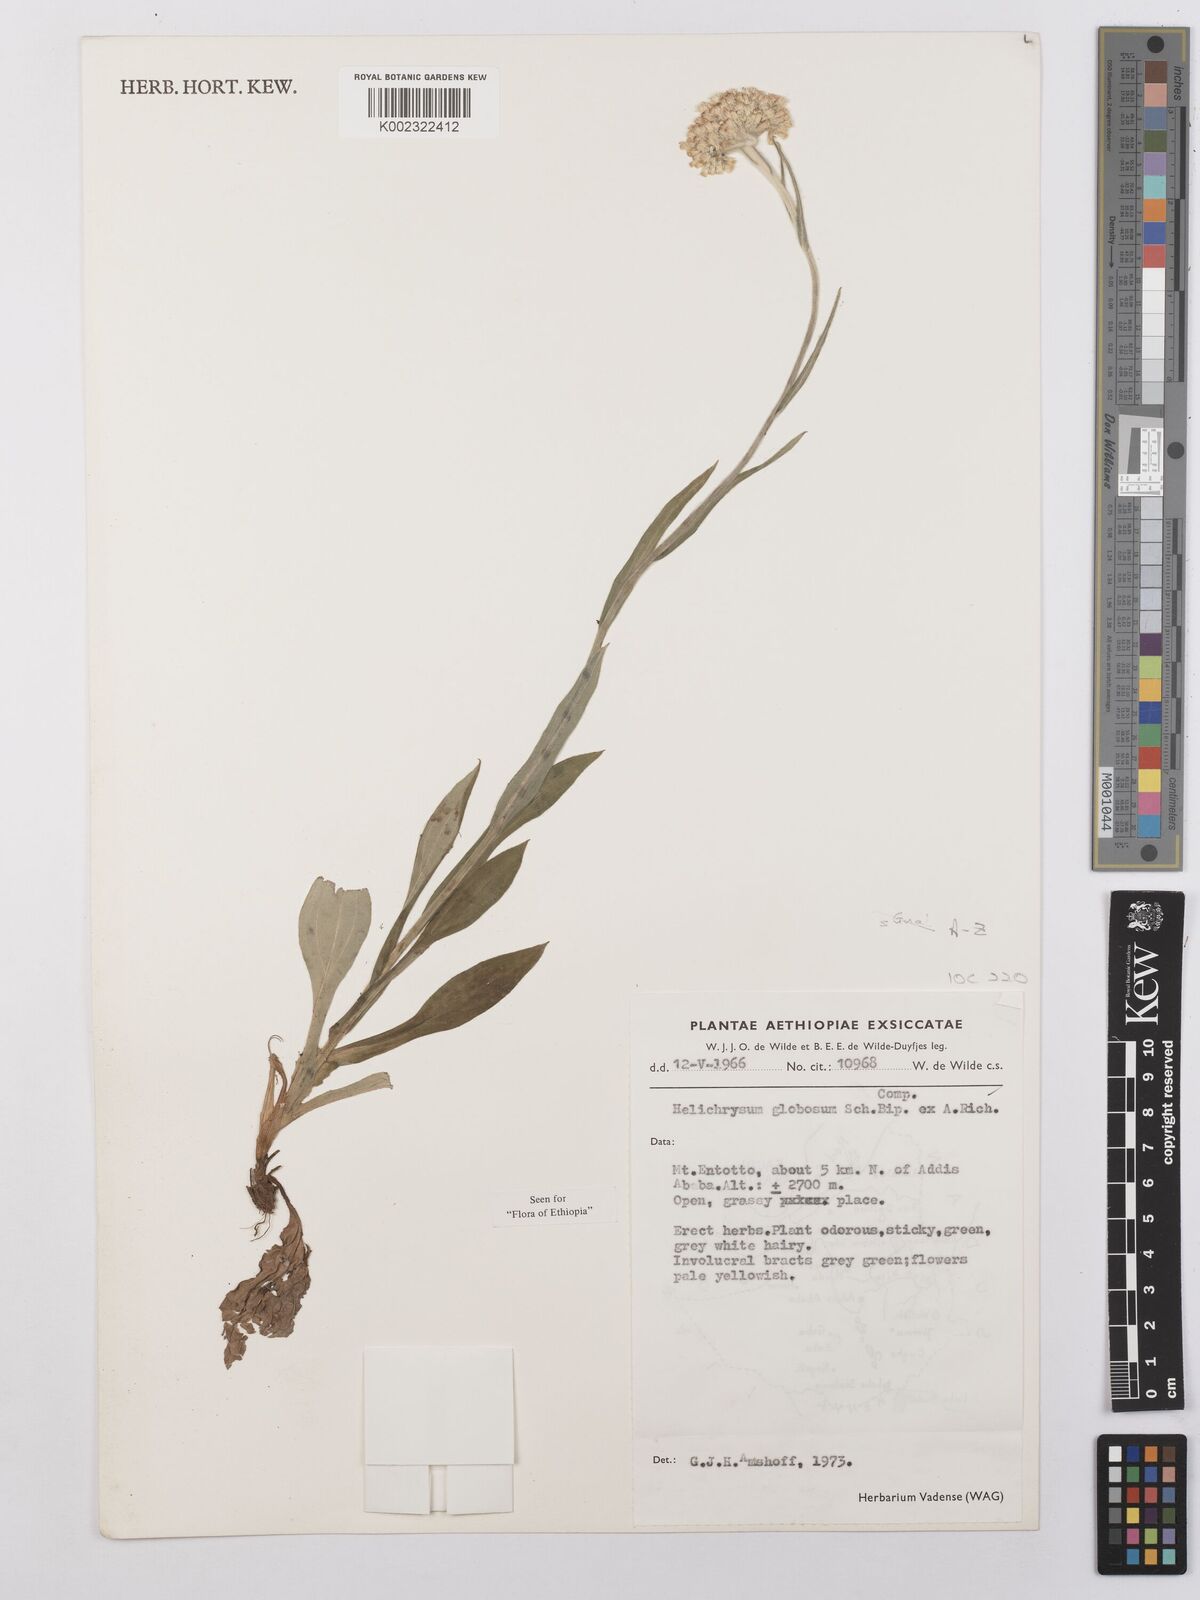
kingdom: Plantae
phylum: Tracheophyta
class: Magnoliopsida
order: Asterales
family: Asteraceae
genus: Helichrysum
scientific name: Helichrysum globosum
